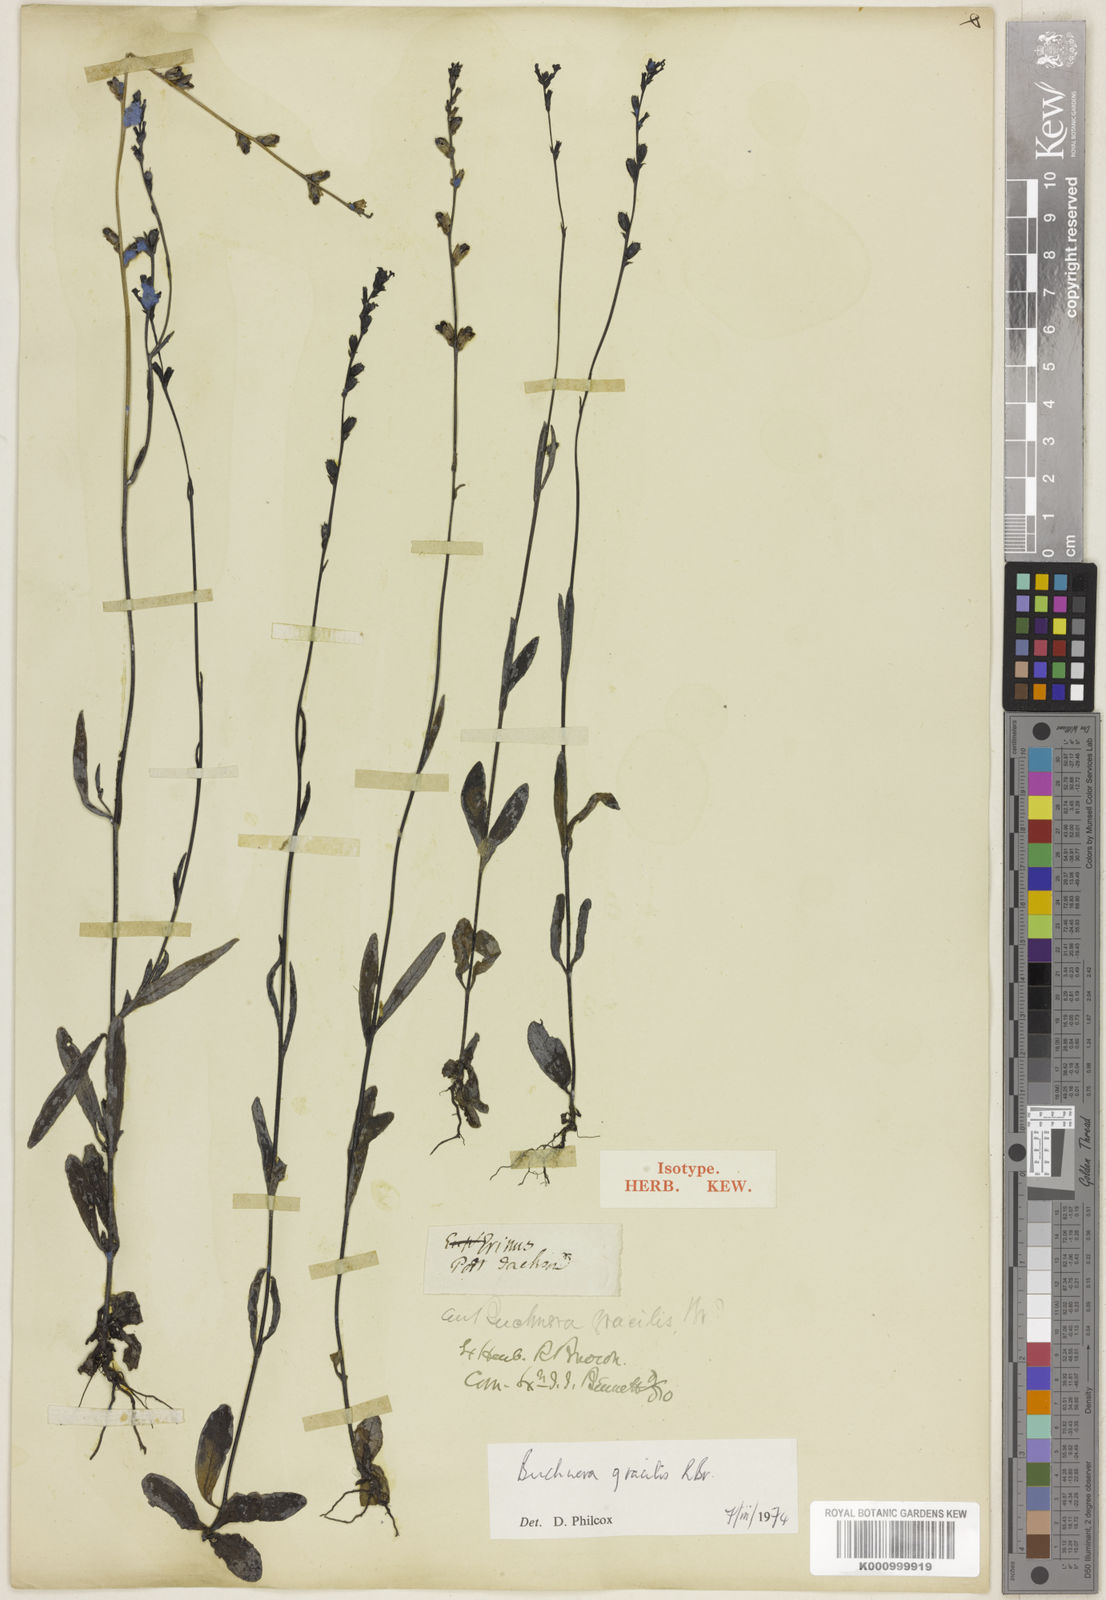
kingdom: Plantae
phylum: Tracheophyta
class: Magnoliopsida
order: Lamiales
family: Orobanchaceae
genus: Buchnera
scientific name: Buchnera gracilis
